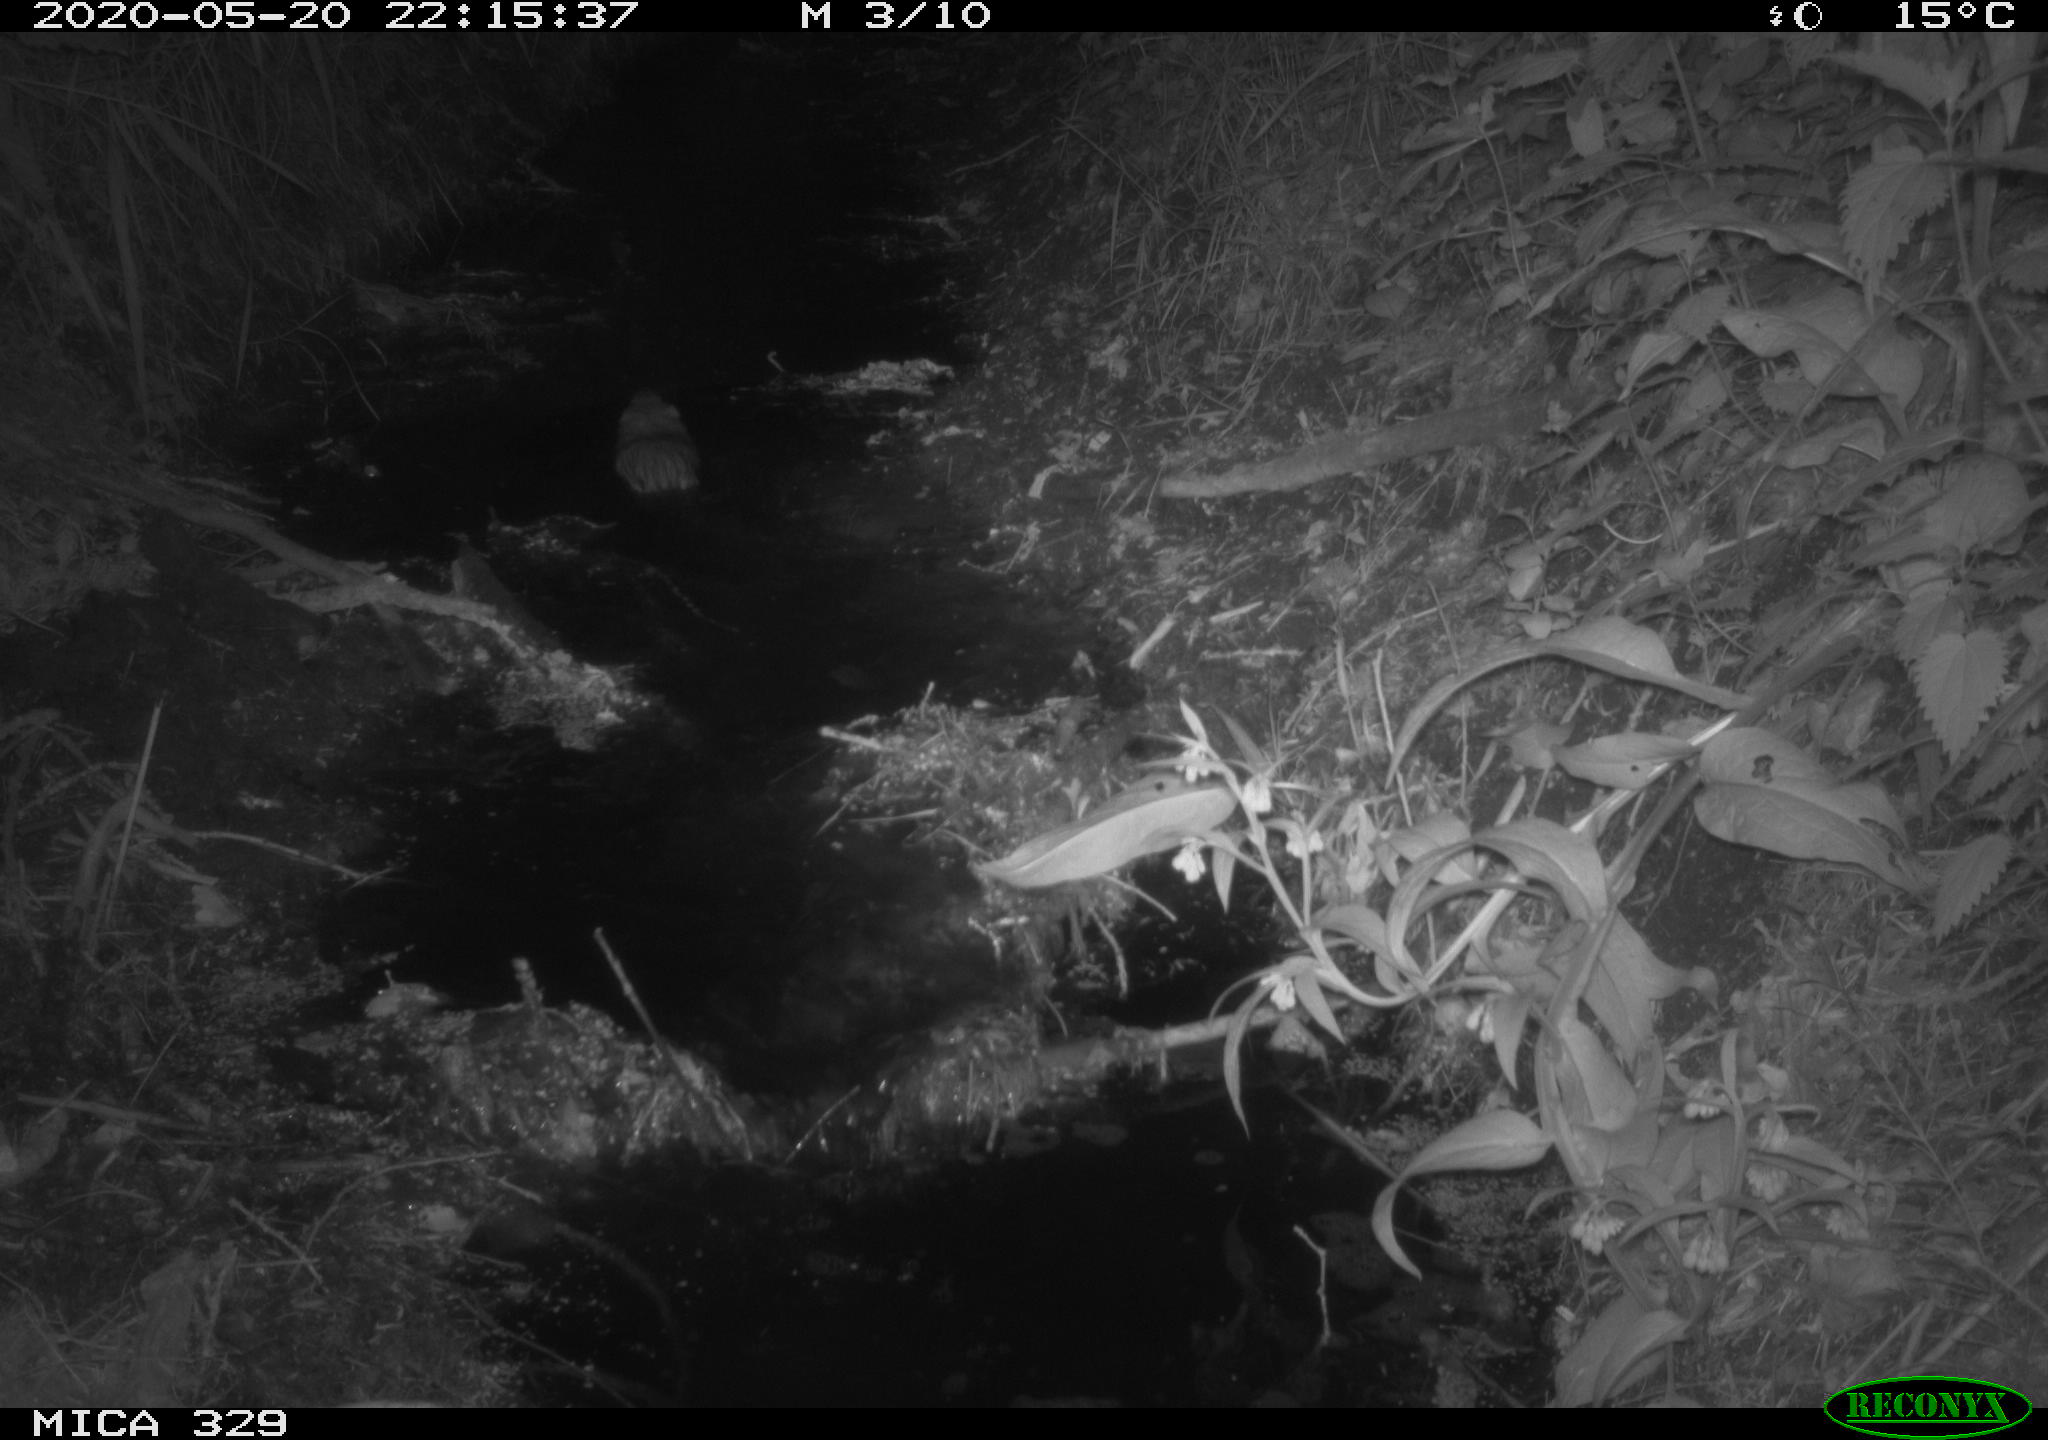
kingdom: Animalia
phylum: Chordata
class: Mammalia
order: Rodentia
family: Cricetidae
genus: Ondatra
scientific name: Ondatra zibethicus
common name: Muskrat
